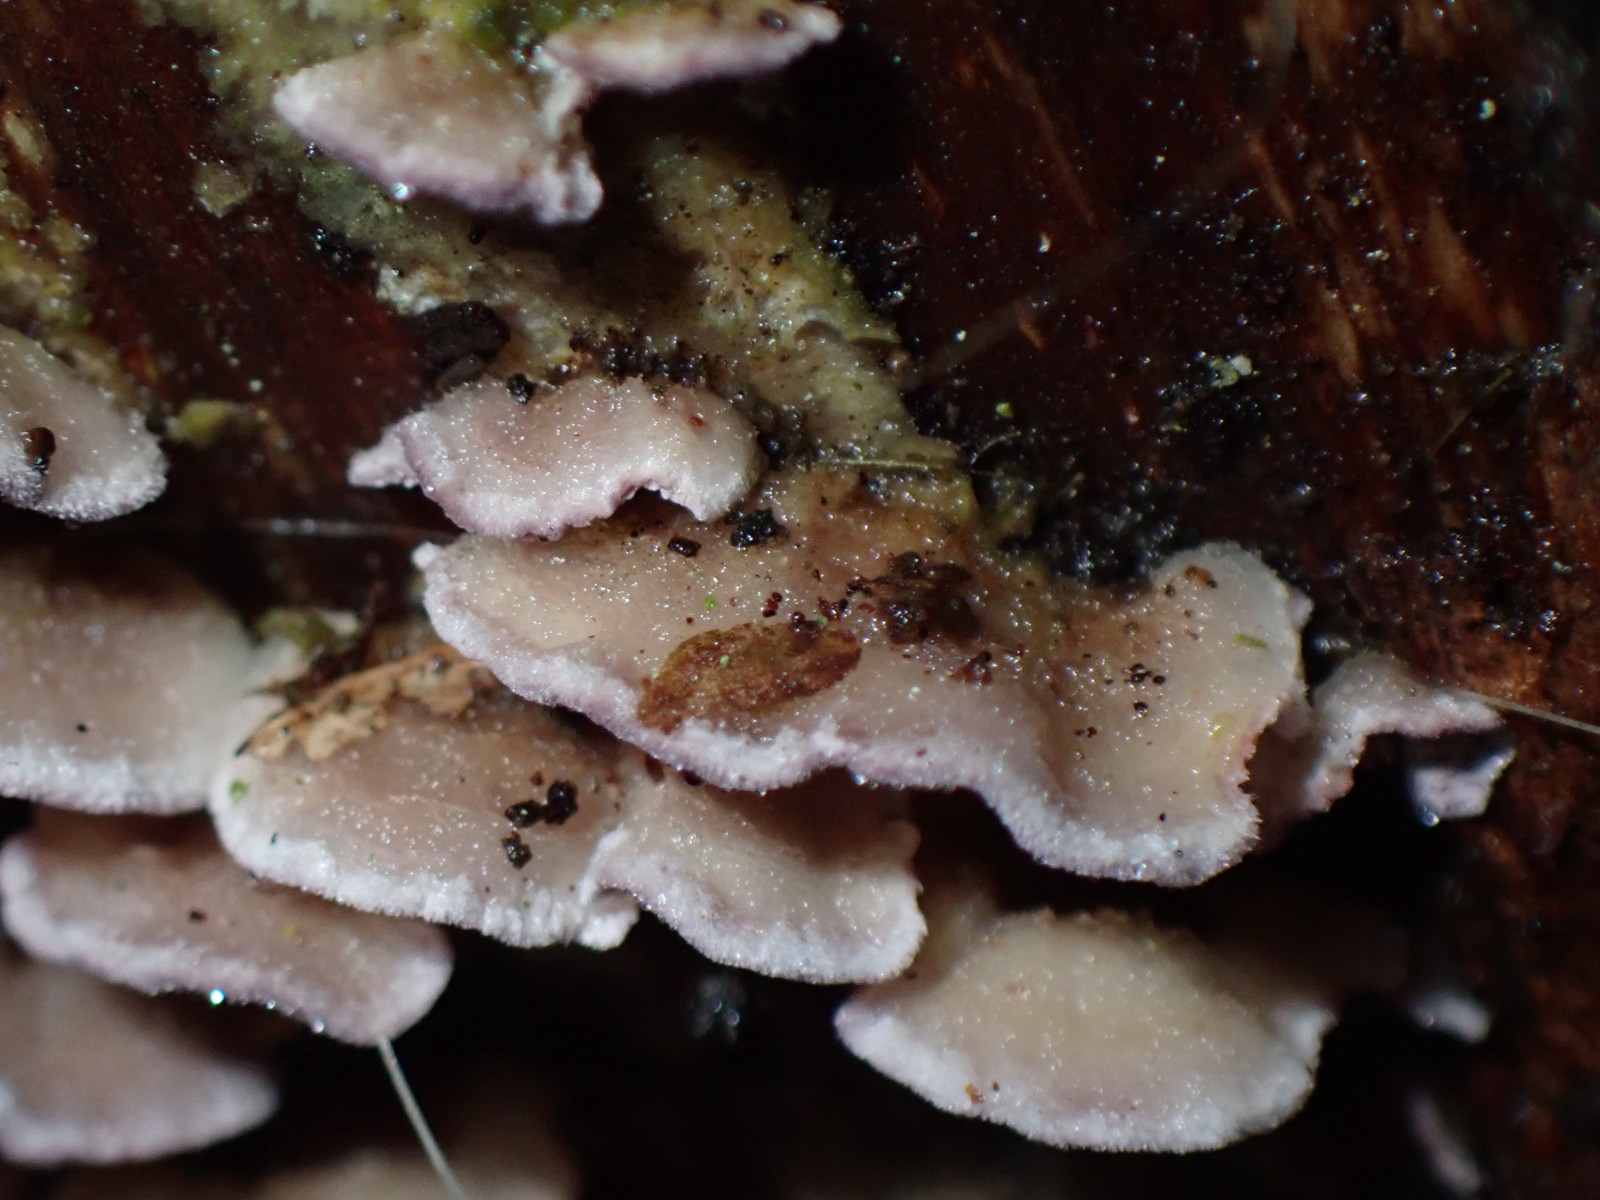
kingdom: Fungi
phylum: Basidiomycota
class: Agaricomycetes
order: Hymenochaetales
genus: Trichaptum
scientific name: Trichaptum abietinum
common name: almindelig violporesvamp
